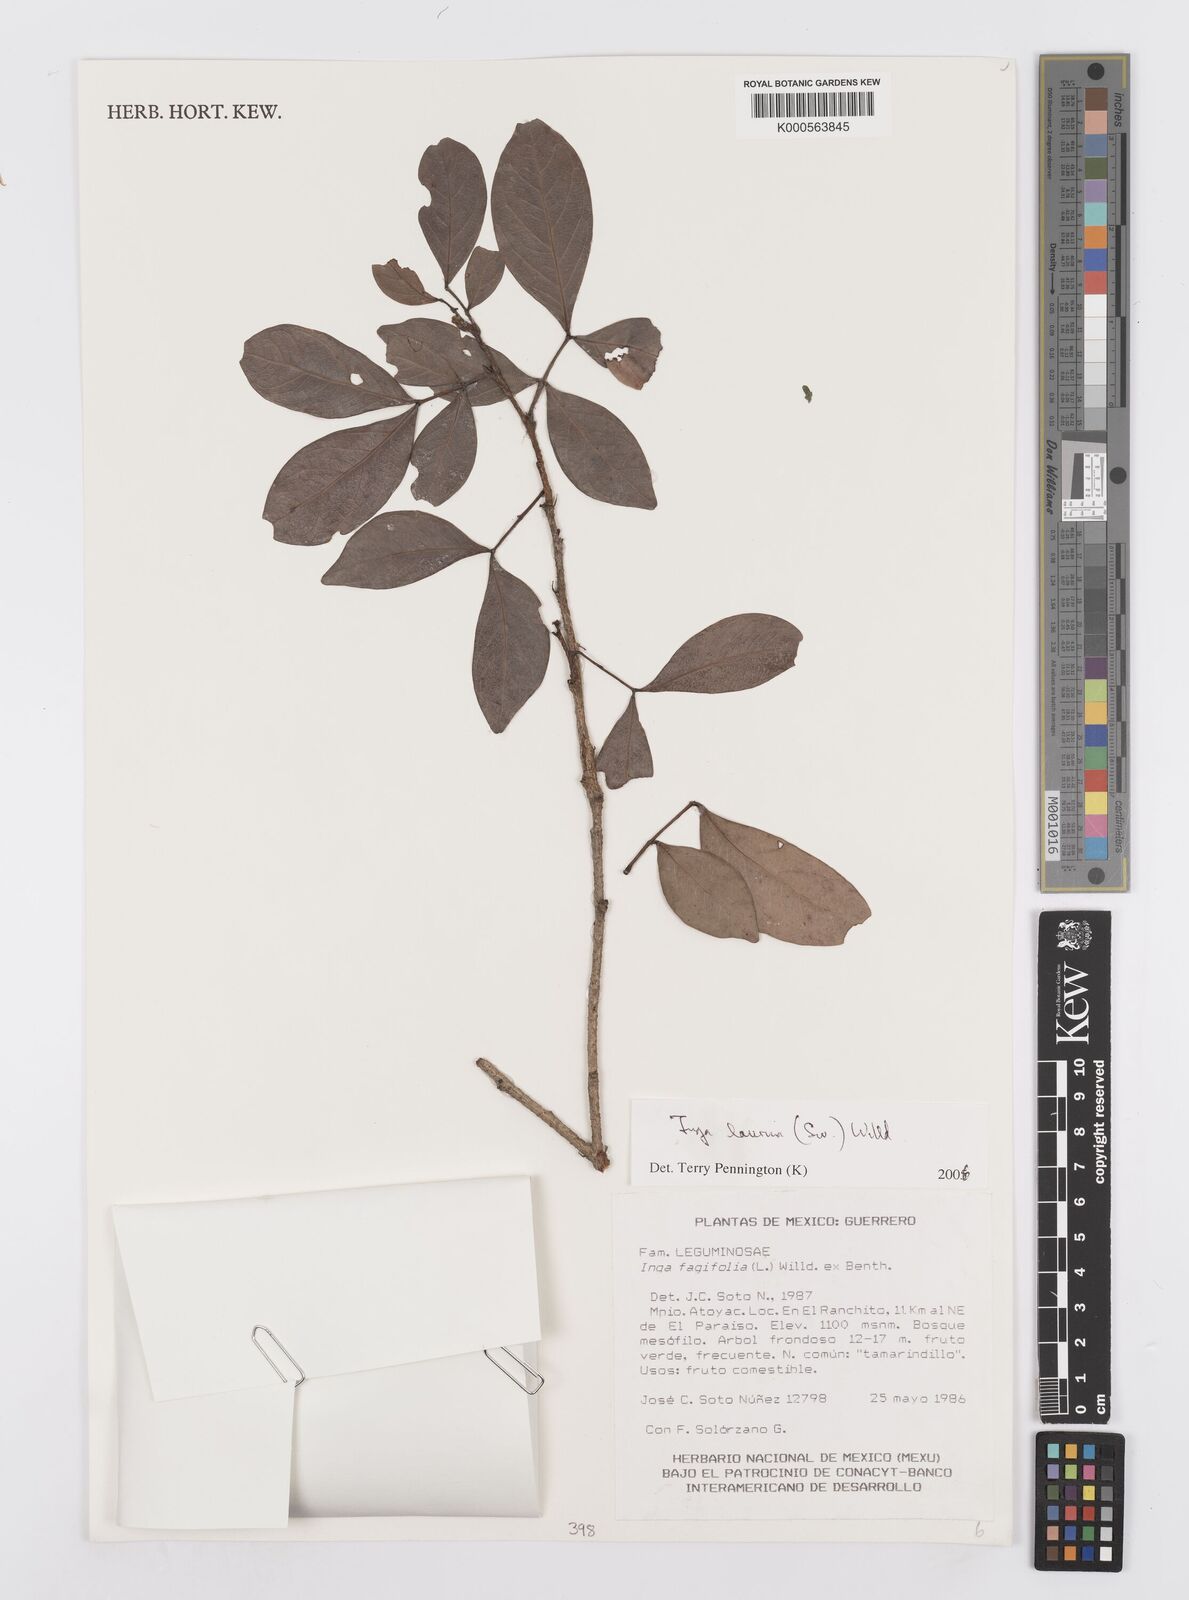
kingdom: Plantae
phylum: Tracheophyta
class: Magnoliopsida
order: Fabales
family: Fabaceae
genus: Inga
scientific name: Inga laurina
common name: Red wood
